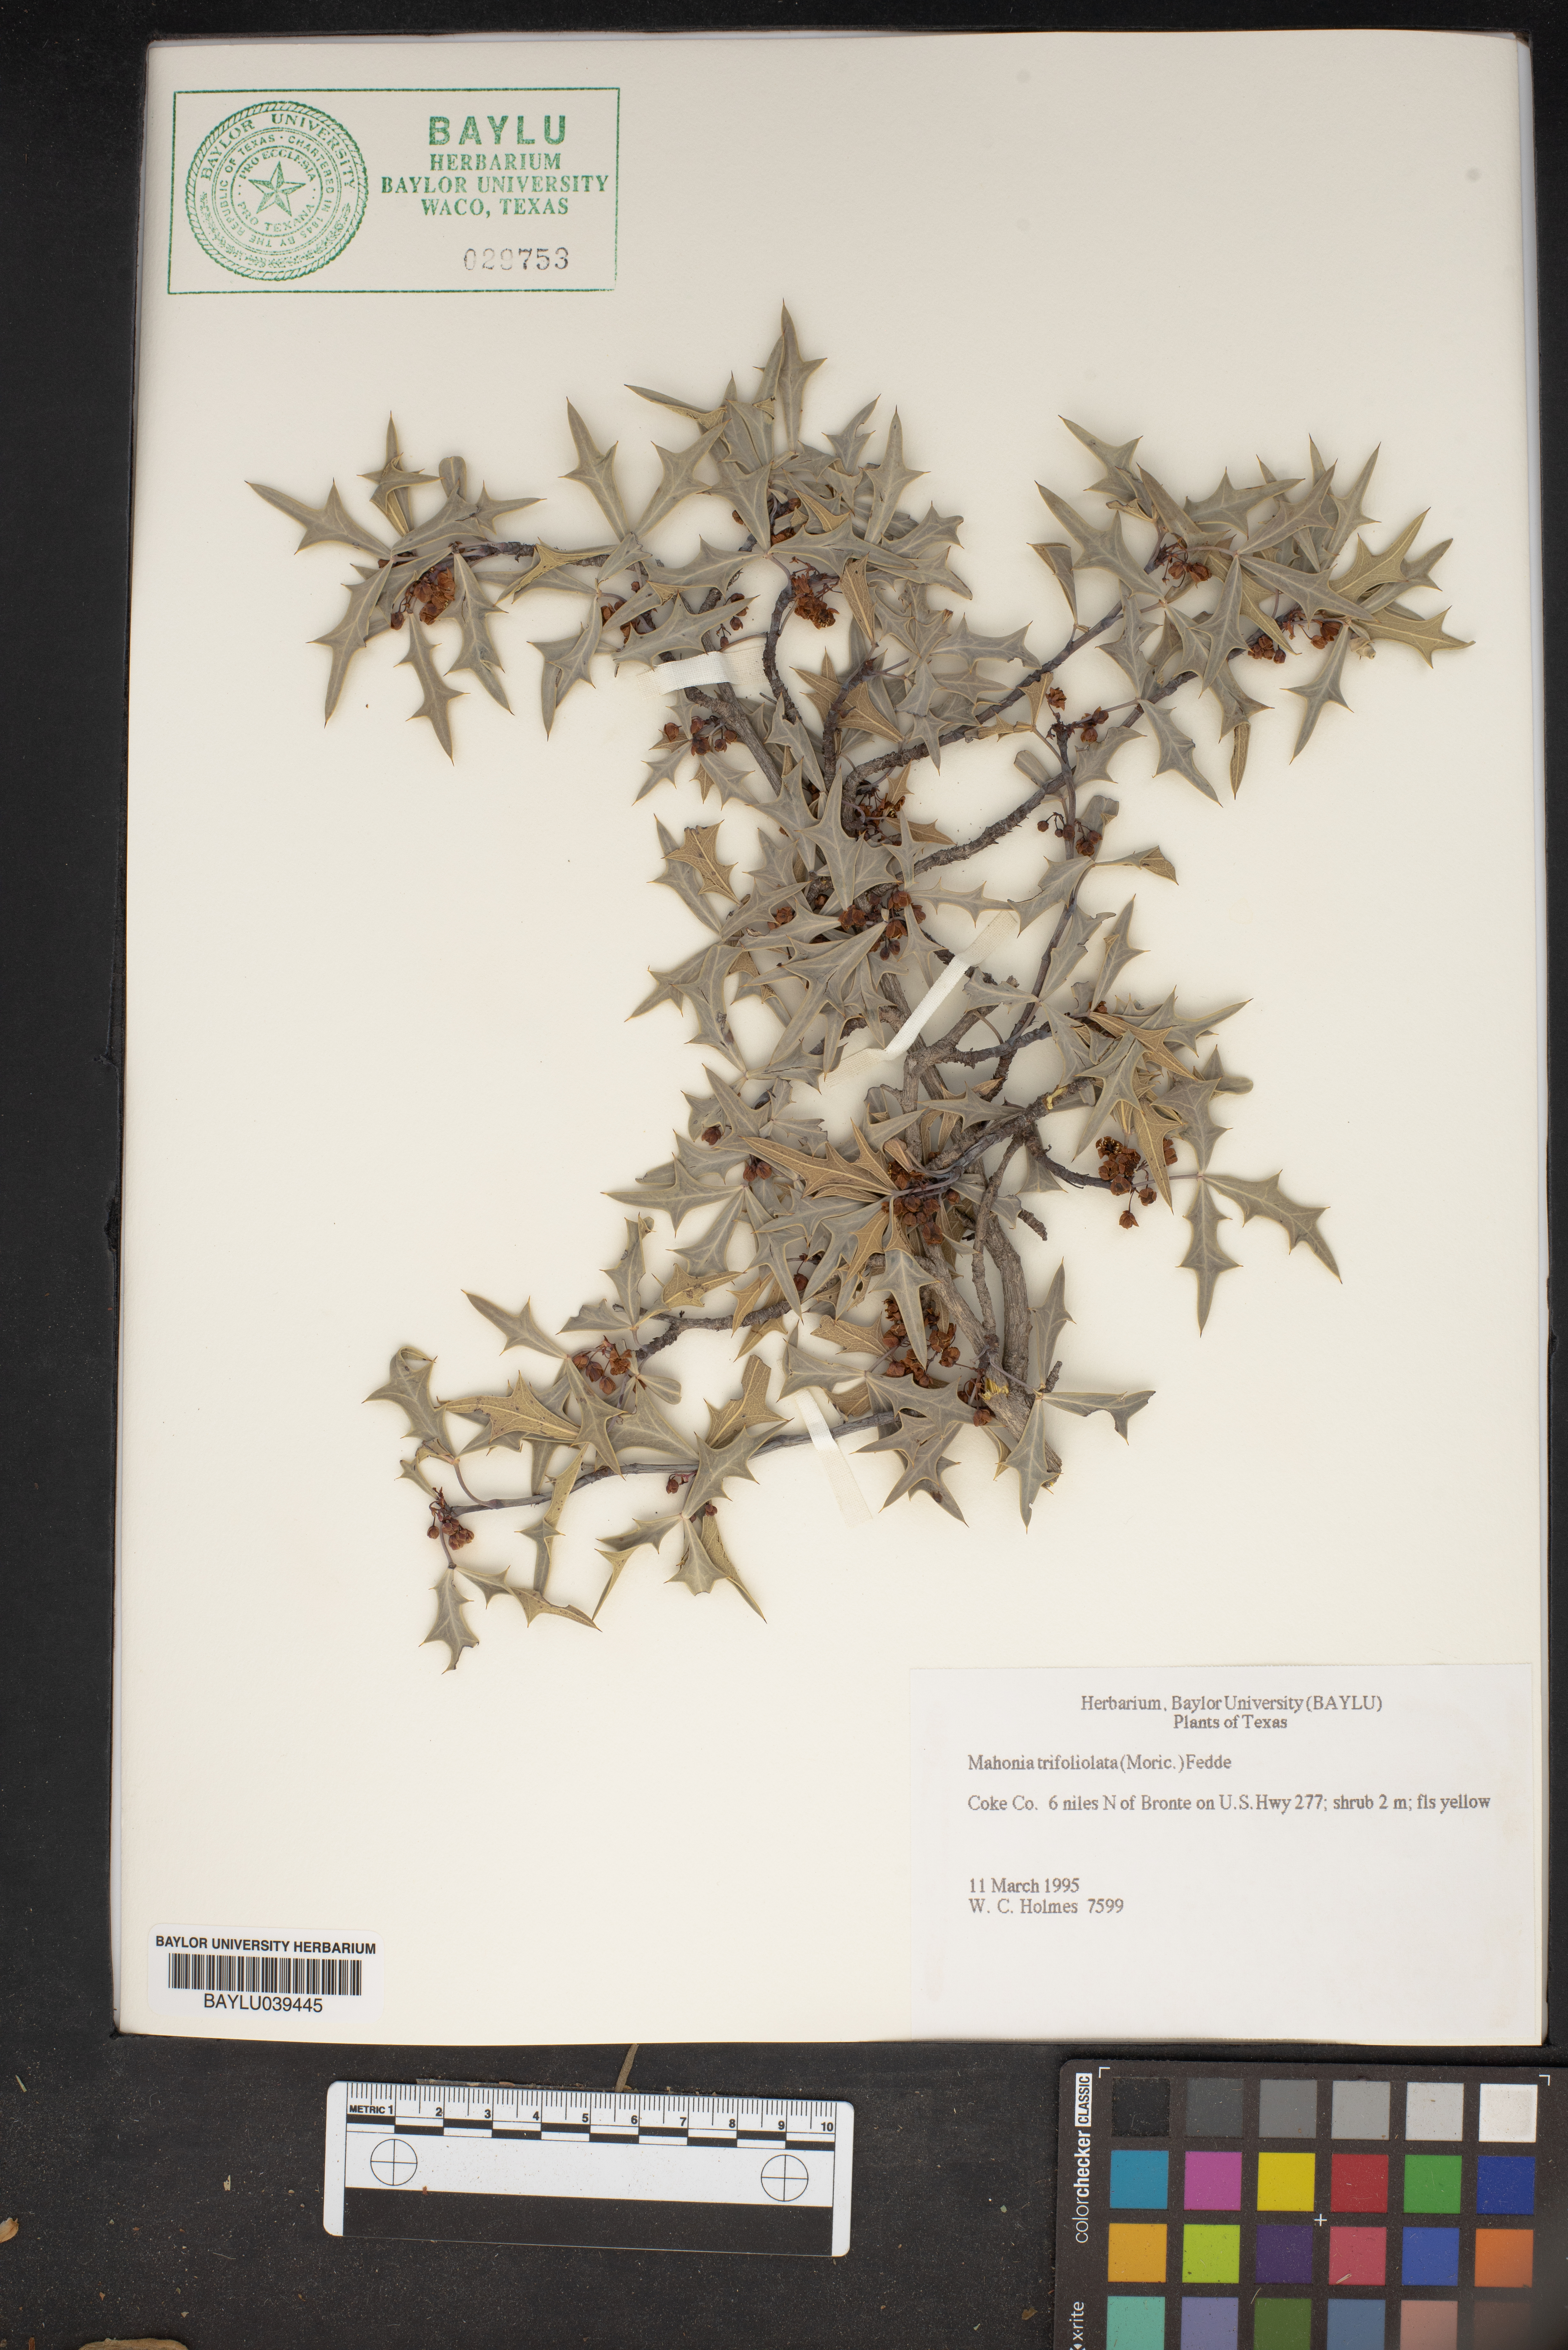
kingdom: Plantae
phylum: Tracheophyta
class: Magnoliopsida
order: Ranunculales
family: Berberidaceae
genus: Alloberberis
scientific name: Alloberberis trifoliolata
